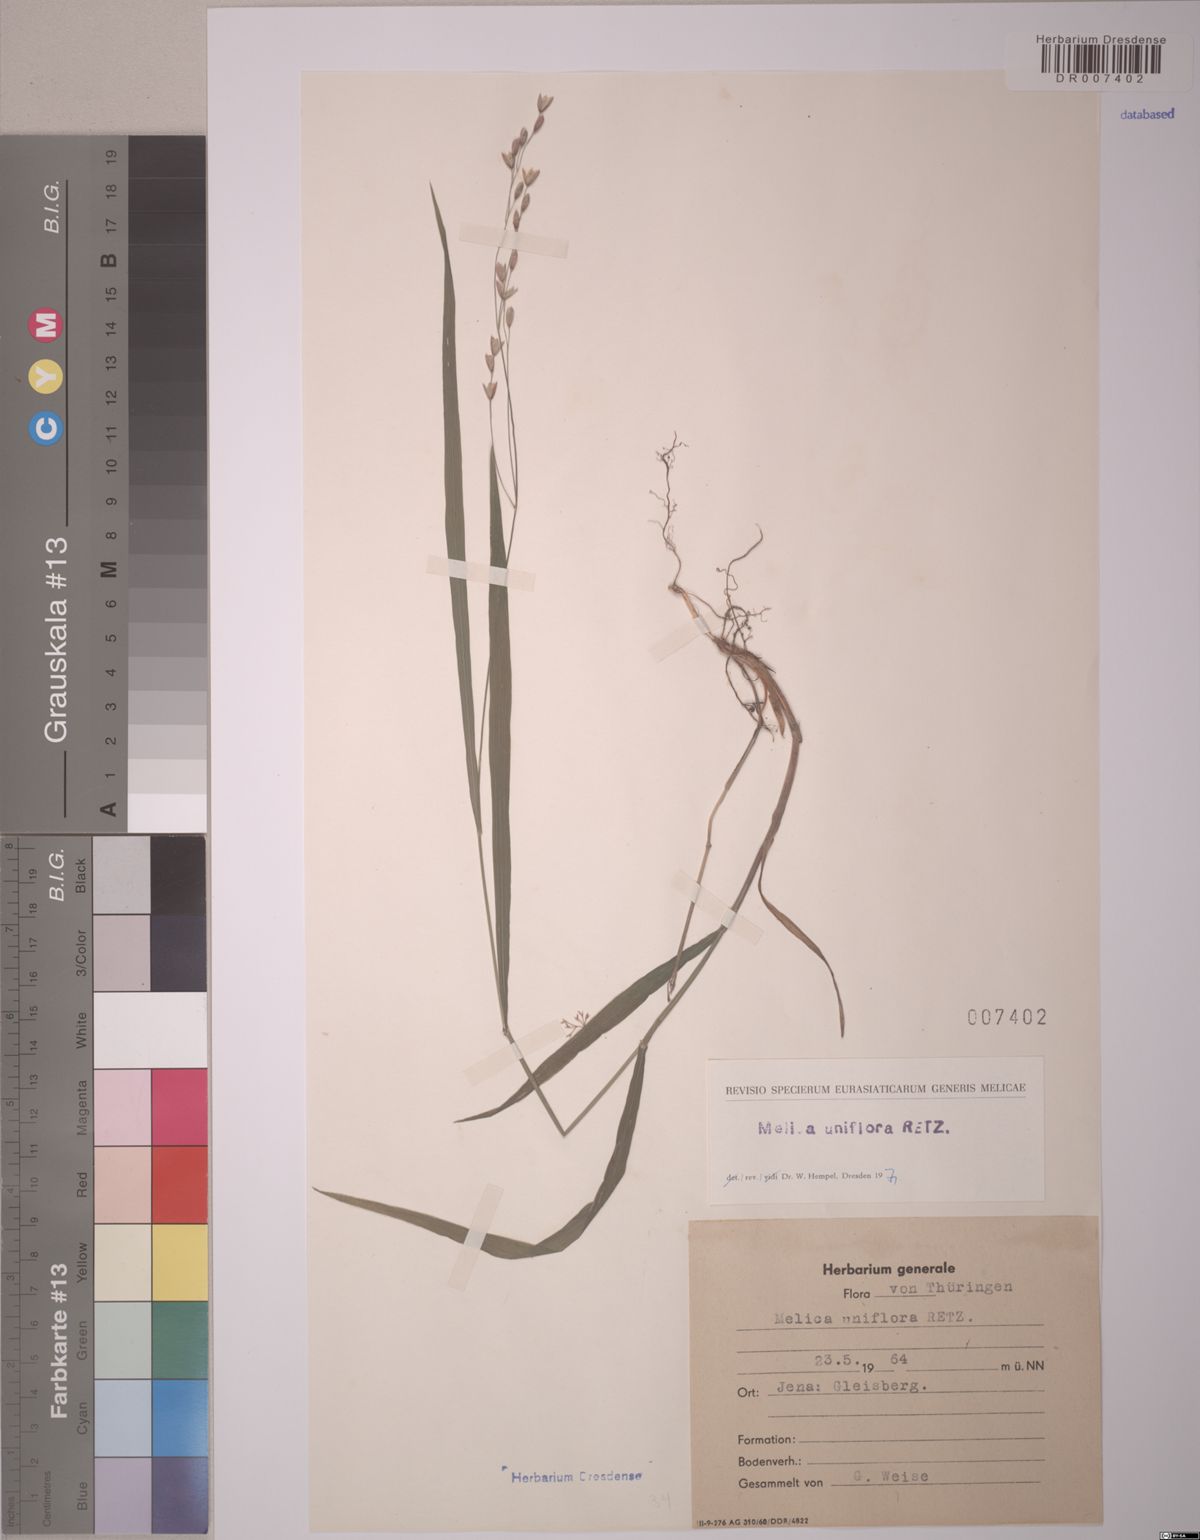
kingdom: Plantae
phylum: Tracheophyta
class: Liliopsida
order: Poales
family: Poaceae
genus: Melica
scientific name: Melica uniflora
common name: Wood melick
